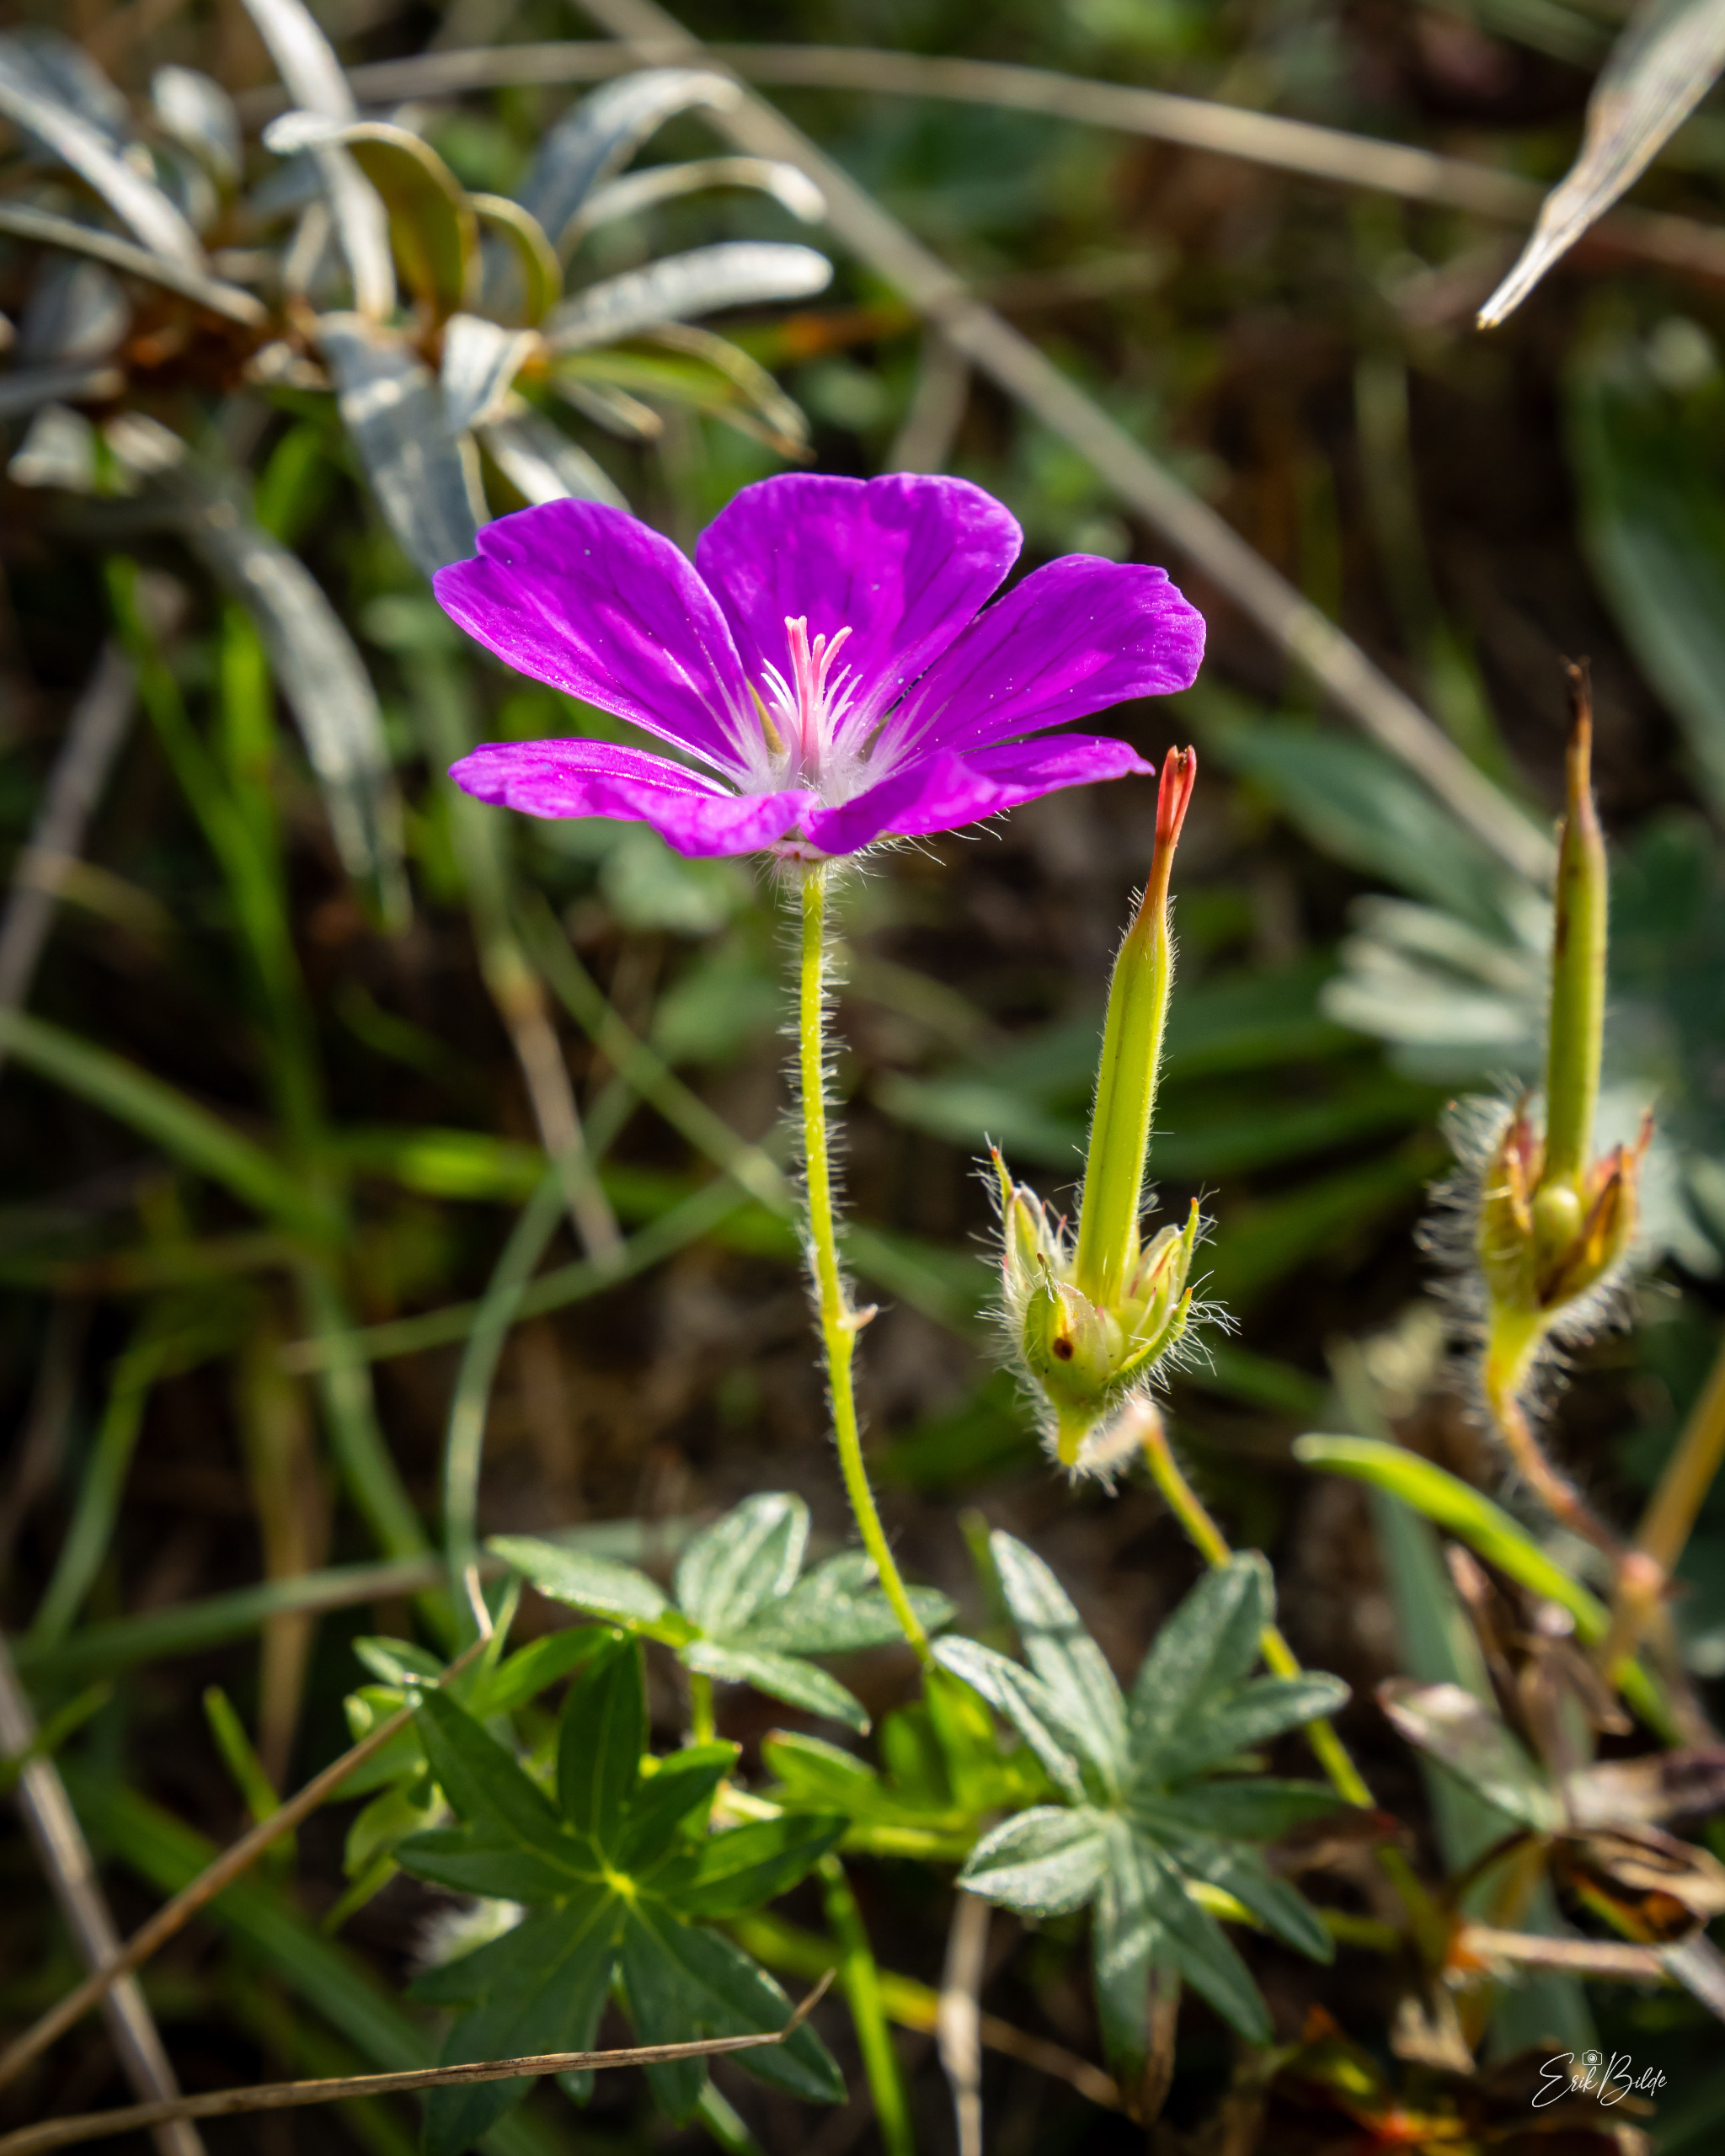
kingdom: Plantae
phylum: Tracheophyta
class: Magnoliopsida
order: Geraniales
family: Geraniaceae
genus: Geranium
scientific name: Geranium sanguineum
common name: Blodrød storkenæb
